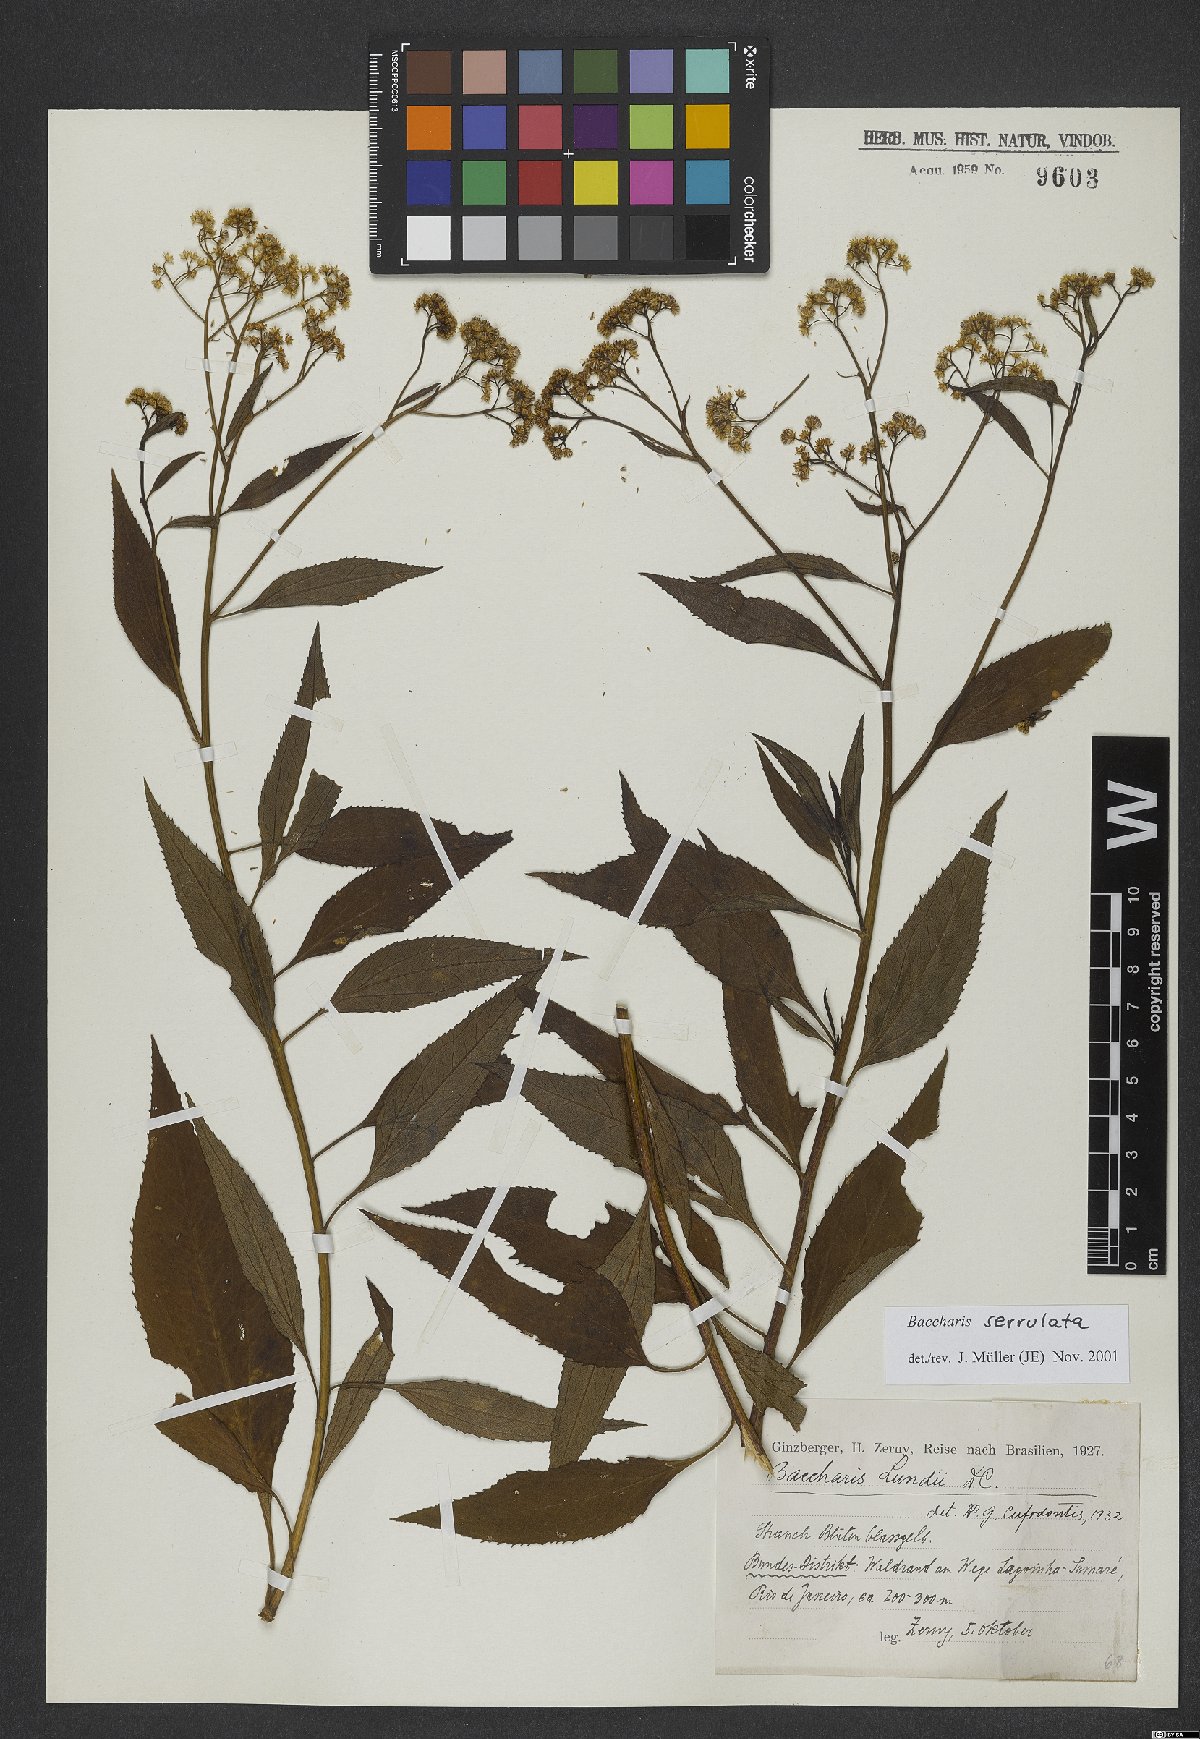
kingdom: Plantae
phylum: Tracheophyta
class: Magnoliopsida
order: Asterales
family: Asteraceae
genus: Archibaccharis
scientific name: Archibaccharis vulneraria
